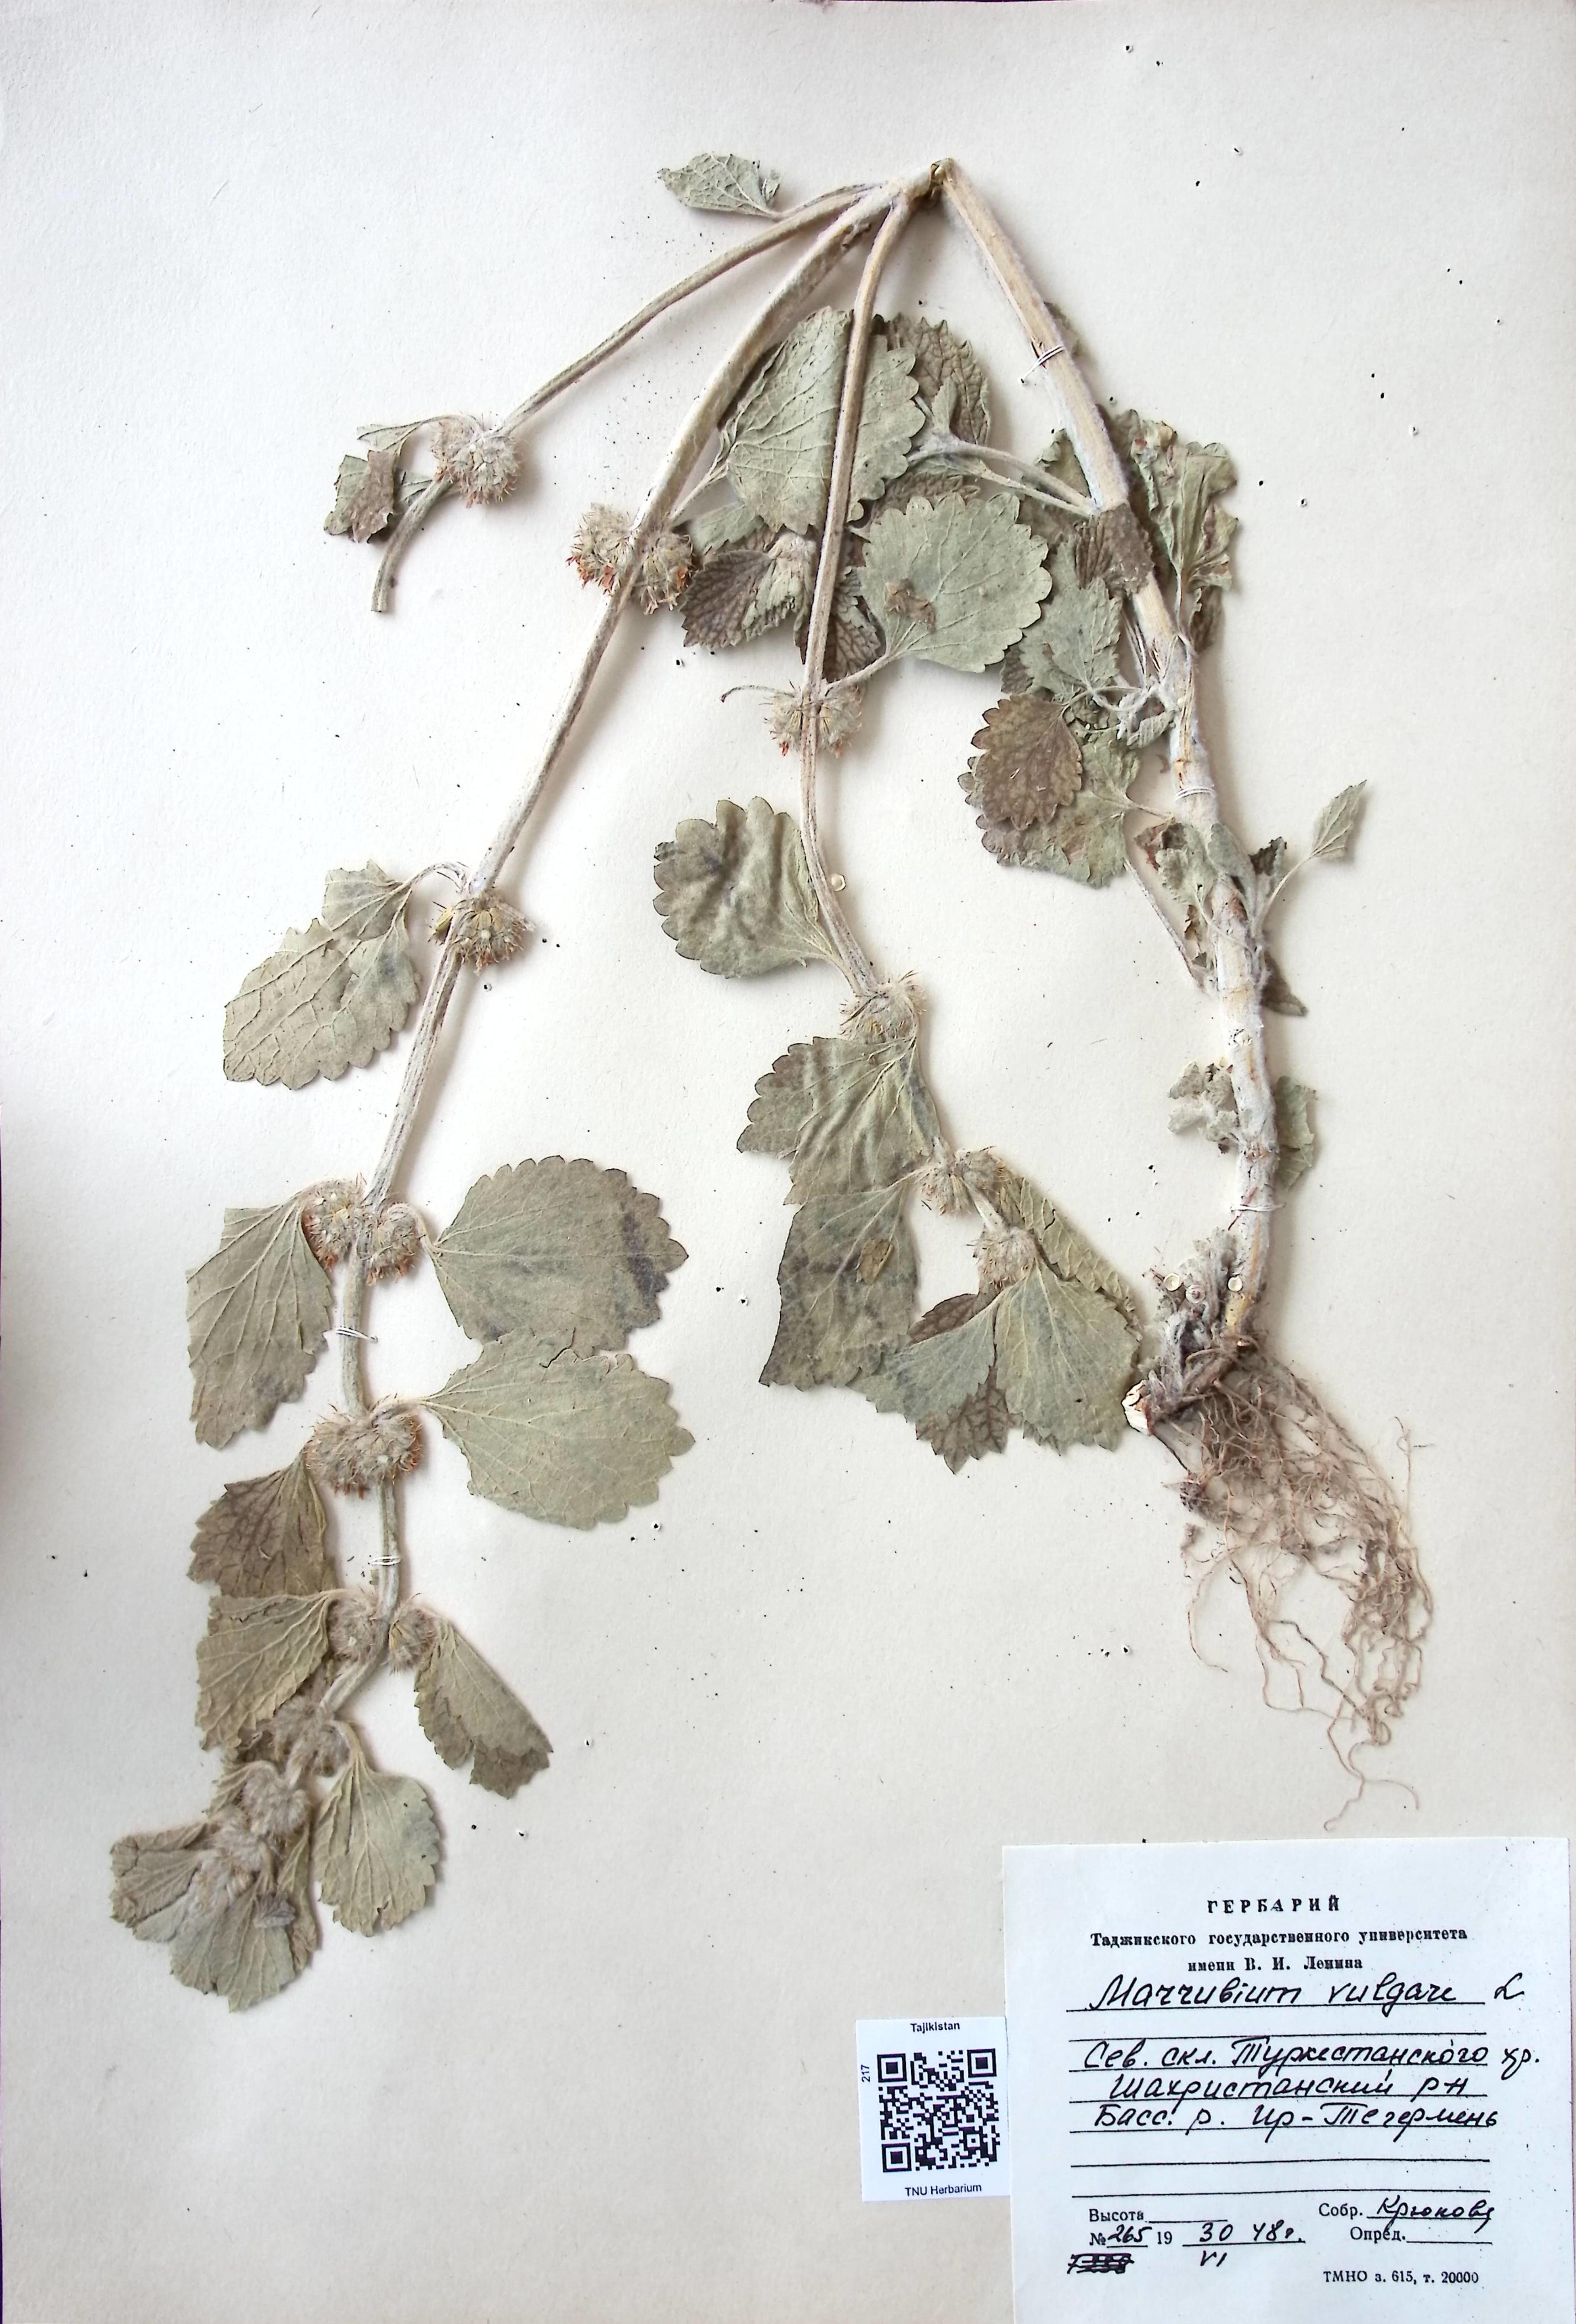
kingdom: Plantae
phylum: Tracheophyta
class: Magnoliopsida
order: Lamiales
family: Lamiaceae
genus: Marrubium
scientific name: Marrubium vulgare
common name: Horehound
